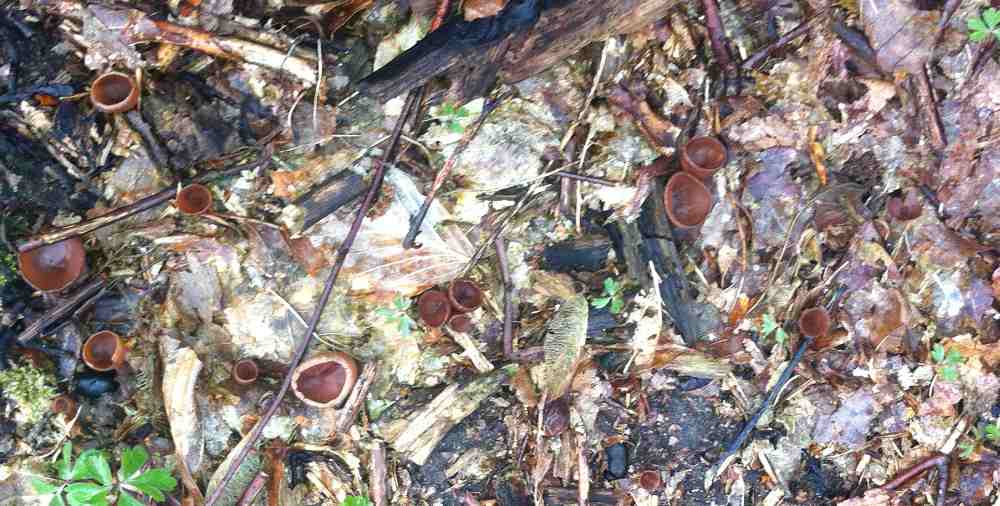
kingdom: Fungi
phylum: Ascomycota
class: Leotiomycetes
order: Helotiales
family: Sclerotiniaceae
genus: Dumontinia
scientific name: Dumontinia tuberosa
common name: anemone-knoldskive
